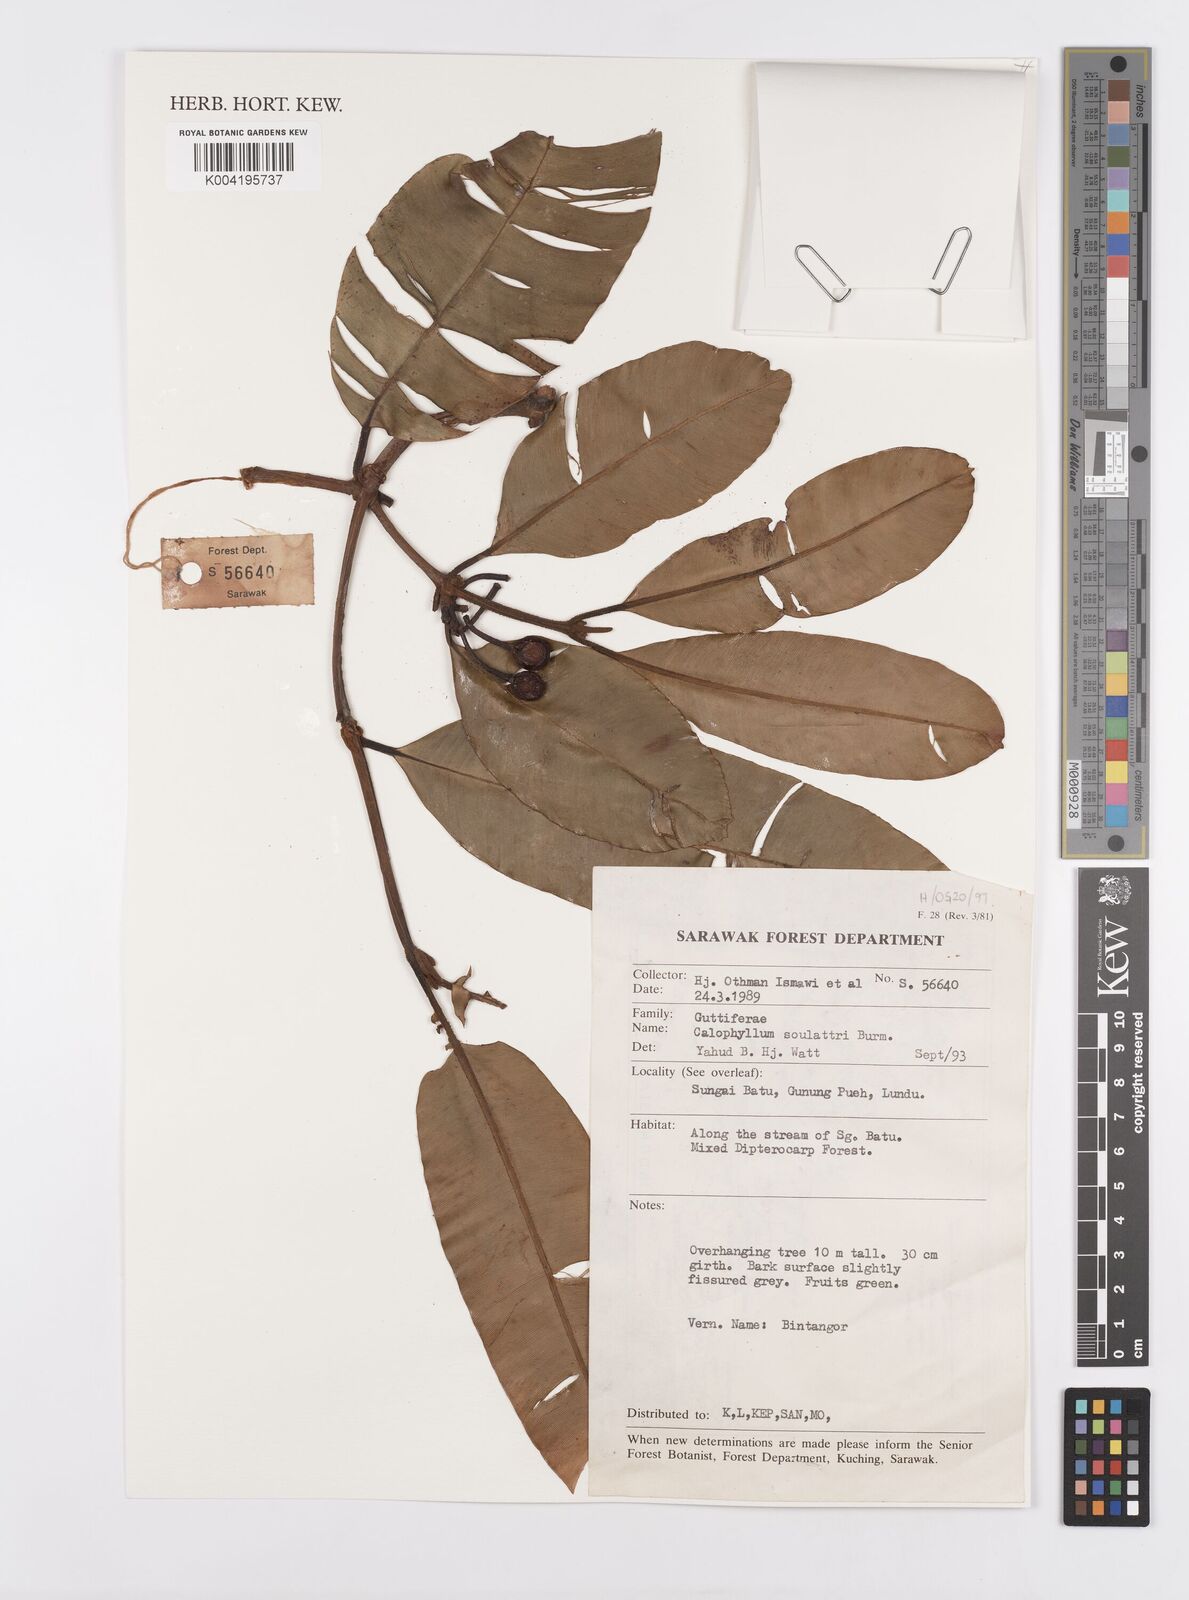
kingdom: Plantae
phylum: Tracheophyta
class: Magnoliopsida
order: Malpighiales
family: Calophyllaceae
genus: Calophyllum
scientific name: Calophyllum soulattri
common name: Bitangoor boonot
